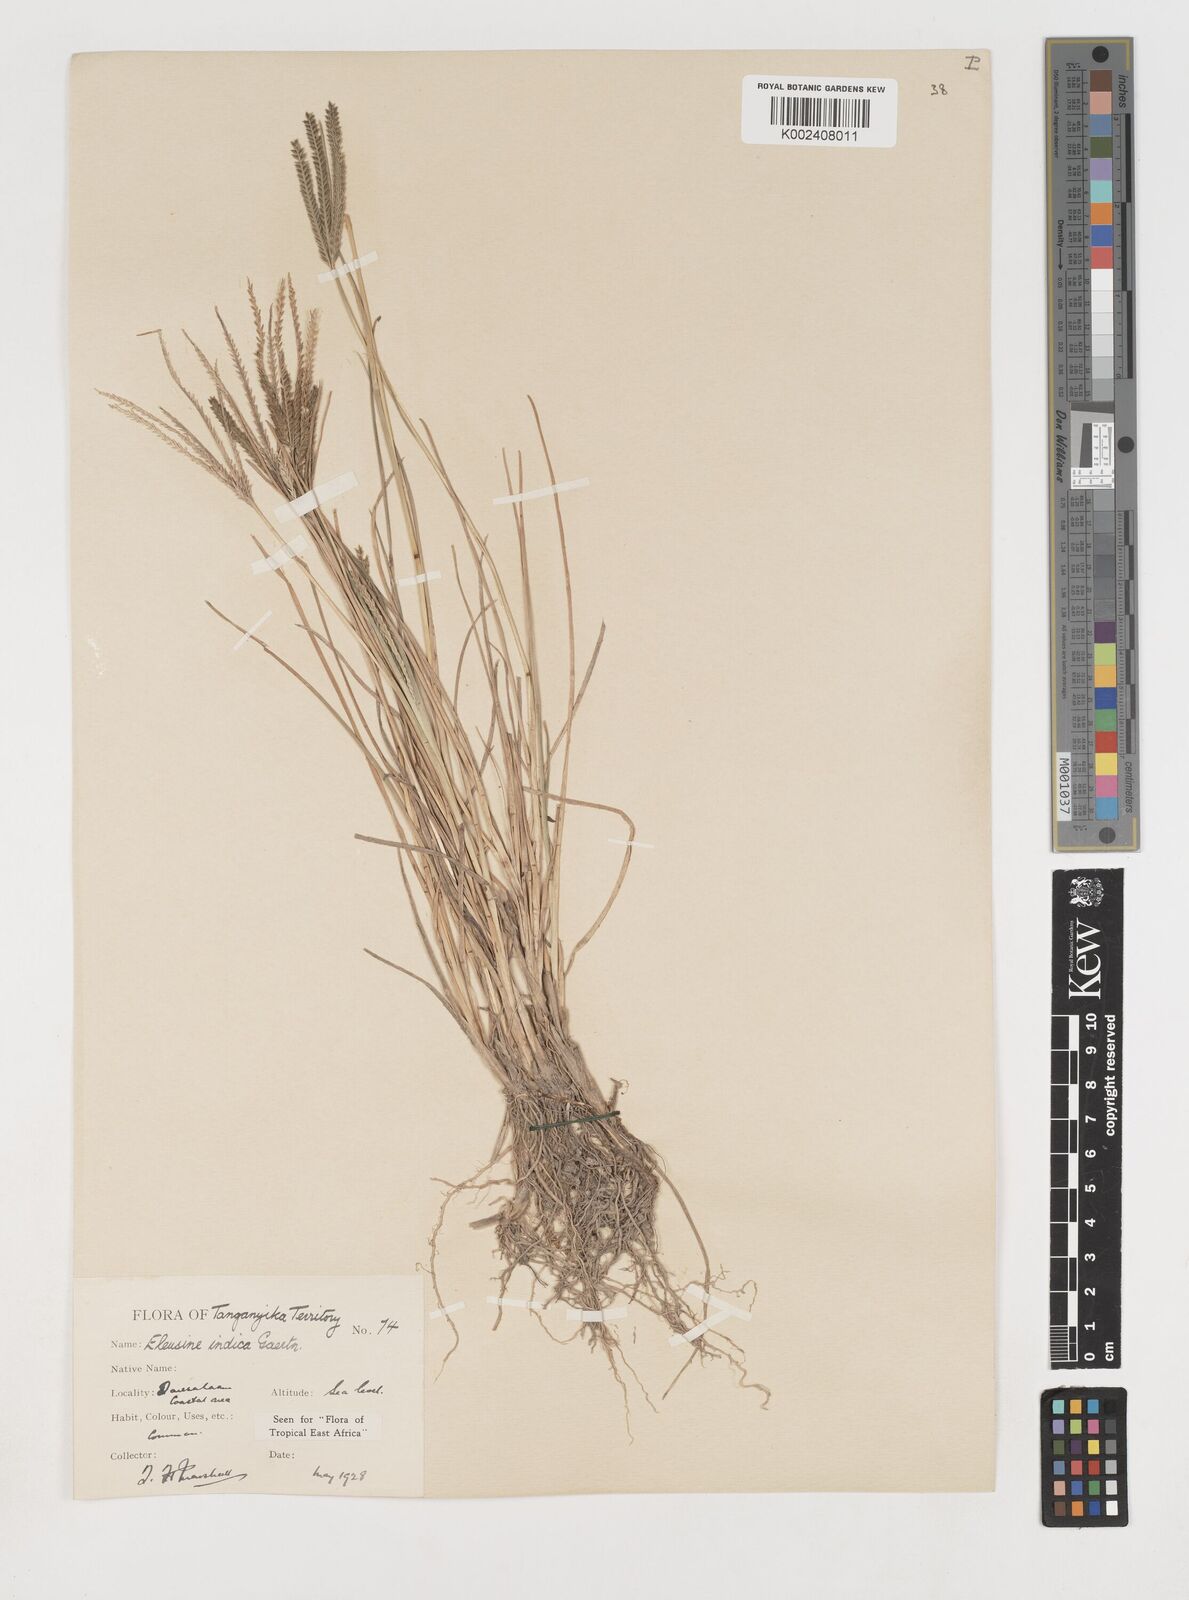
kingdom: Plantae
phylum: Tracheophyta
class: Liliopsida
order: Poales
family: Poaceae
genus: Eleusine
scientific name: Eleusine indica
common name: Yard-grass
